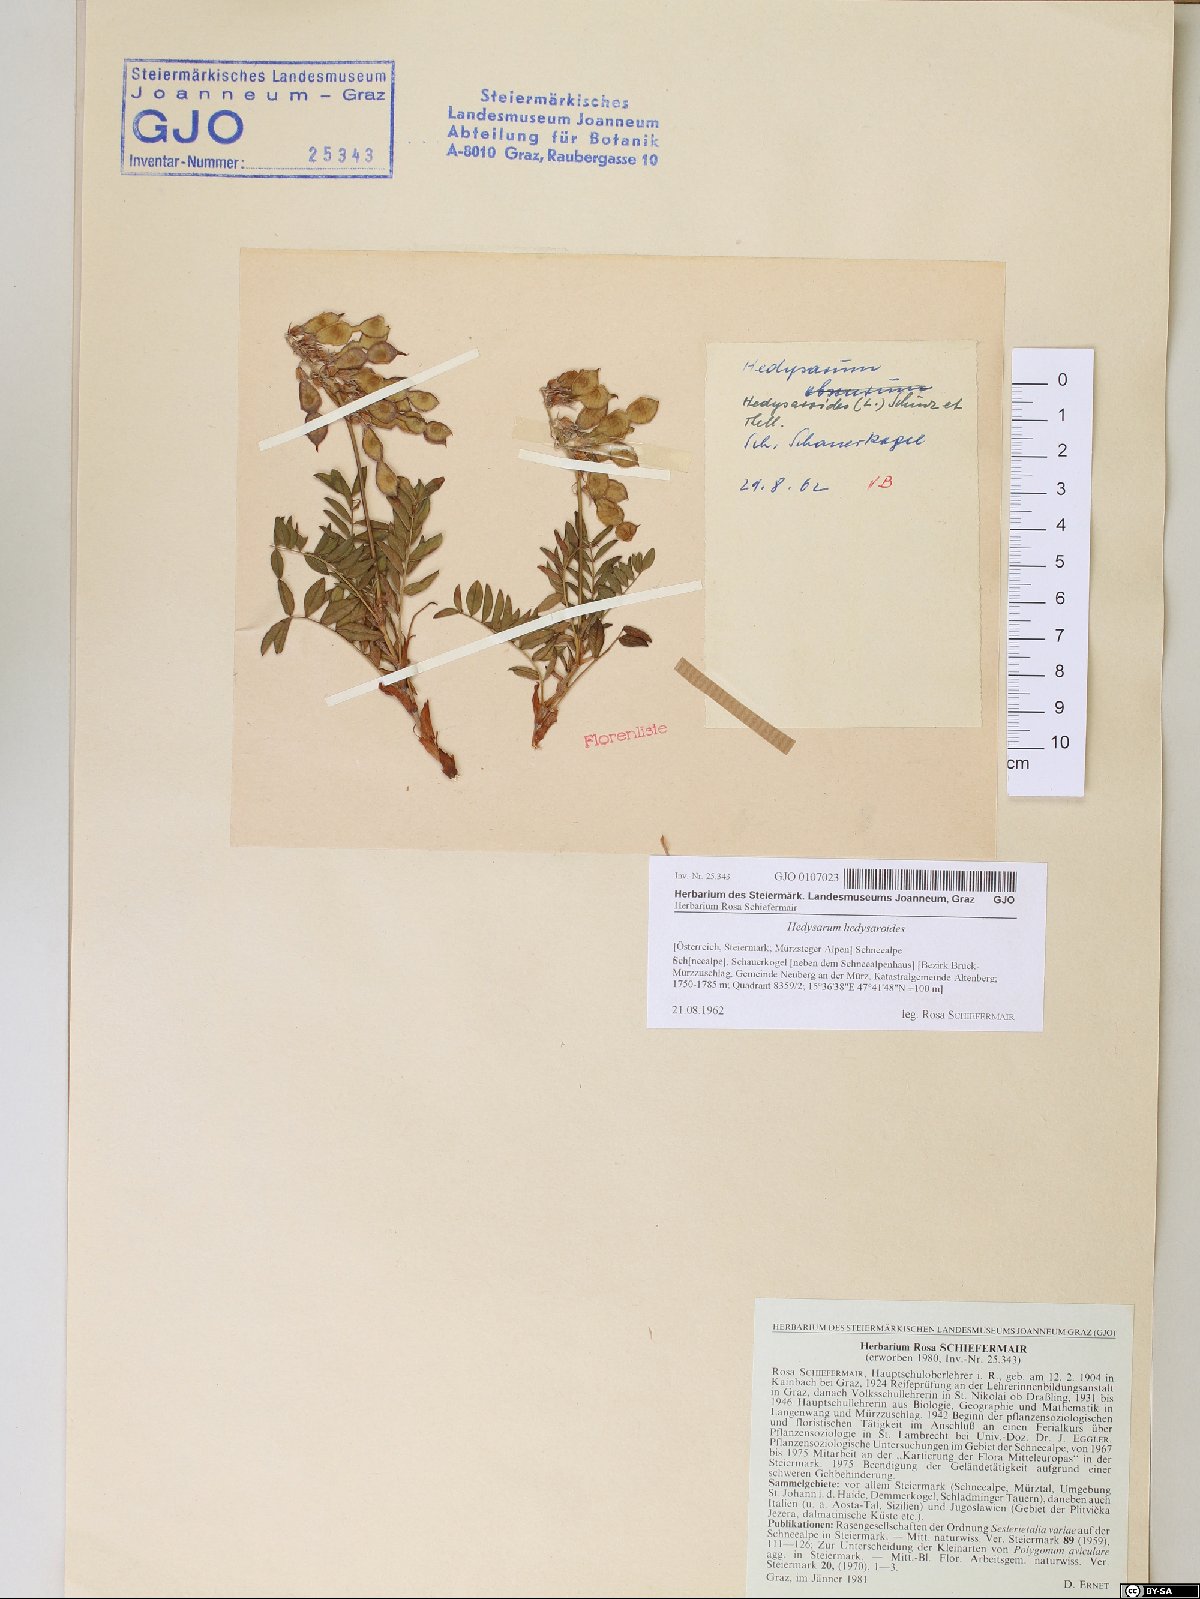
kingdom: Plantae
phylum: Tracheophyta
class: Magnoliopsida
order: Fabales
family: Fabaceae
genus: Hedysarum
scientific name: Hedysarum hedysaroides
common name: Alpine french-honeysuckle
